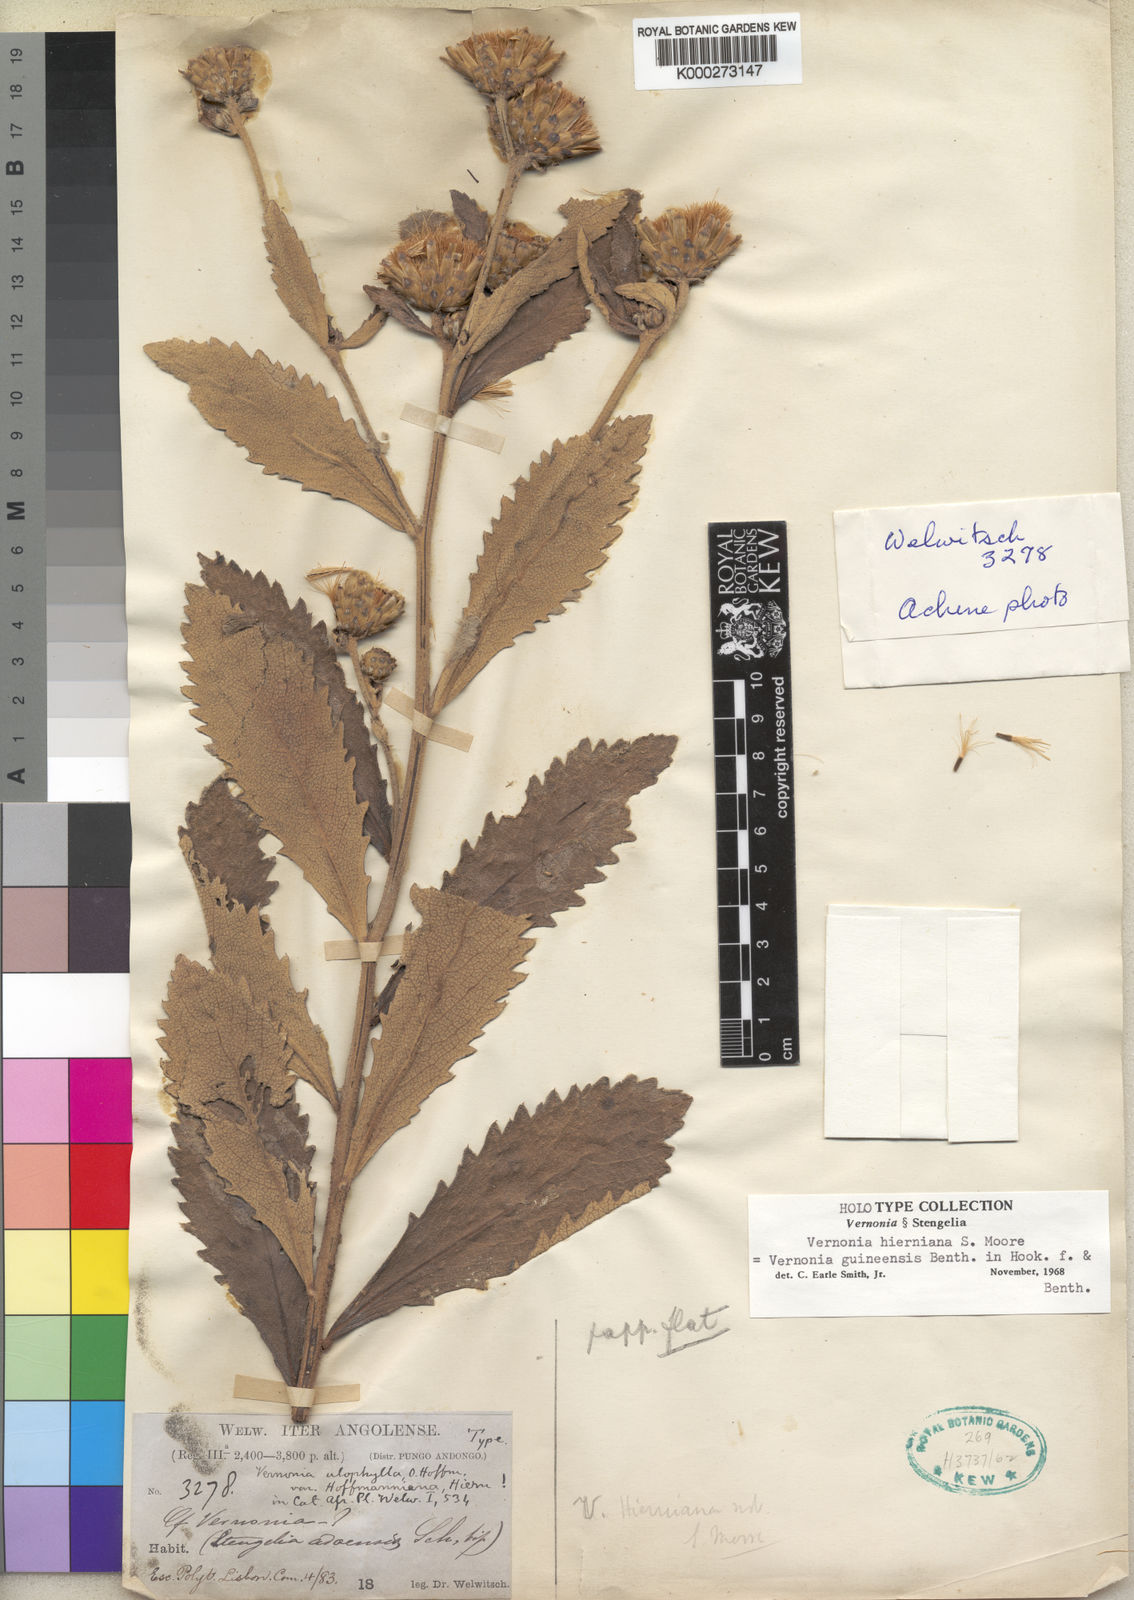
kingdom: Plantae
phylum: Tracheophyta
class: Magnoliopsida
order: Asterales
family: Asteraceae
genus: Baccharoides
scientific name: Baccharoides guineensis
